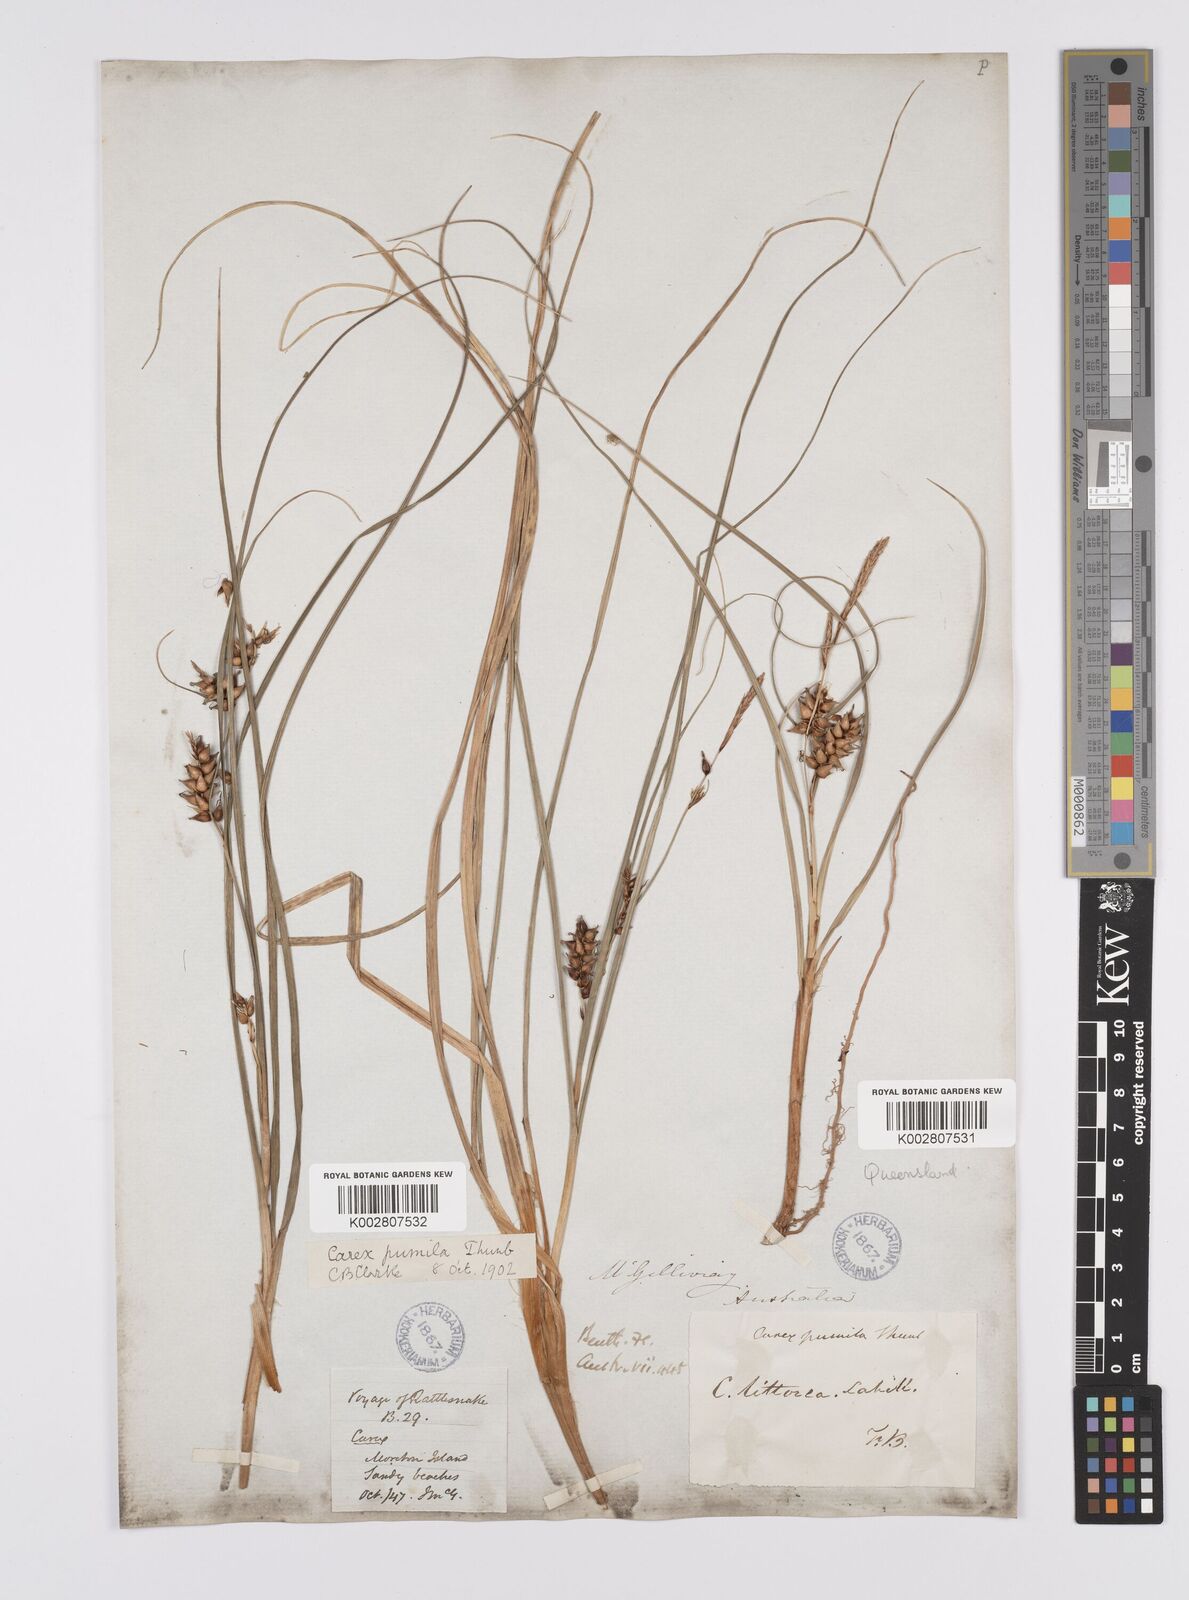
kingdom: Plantae
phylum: Tracheophyta
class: Liliopsida
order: Poales
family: Cyperaceae
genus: Carex
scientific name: Carex pumila
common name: Dwarf sedge
